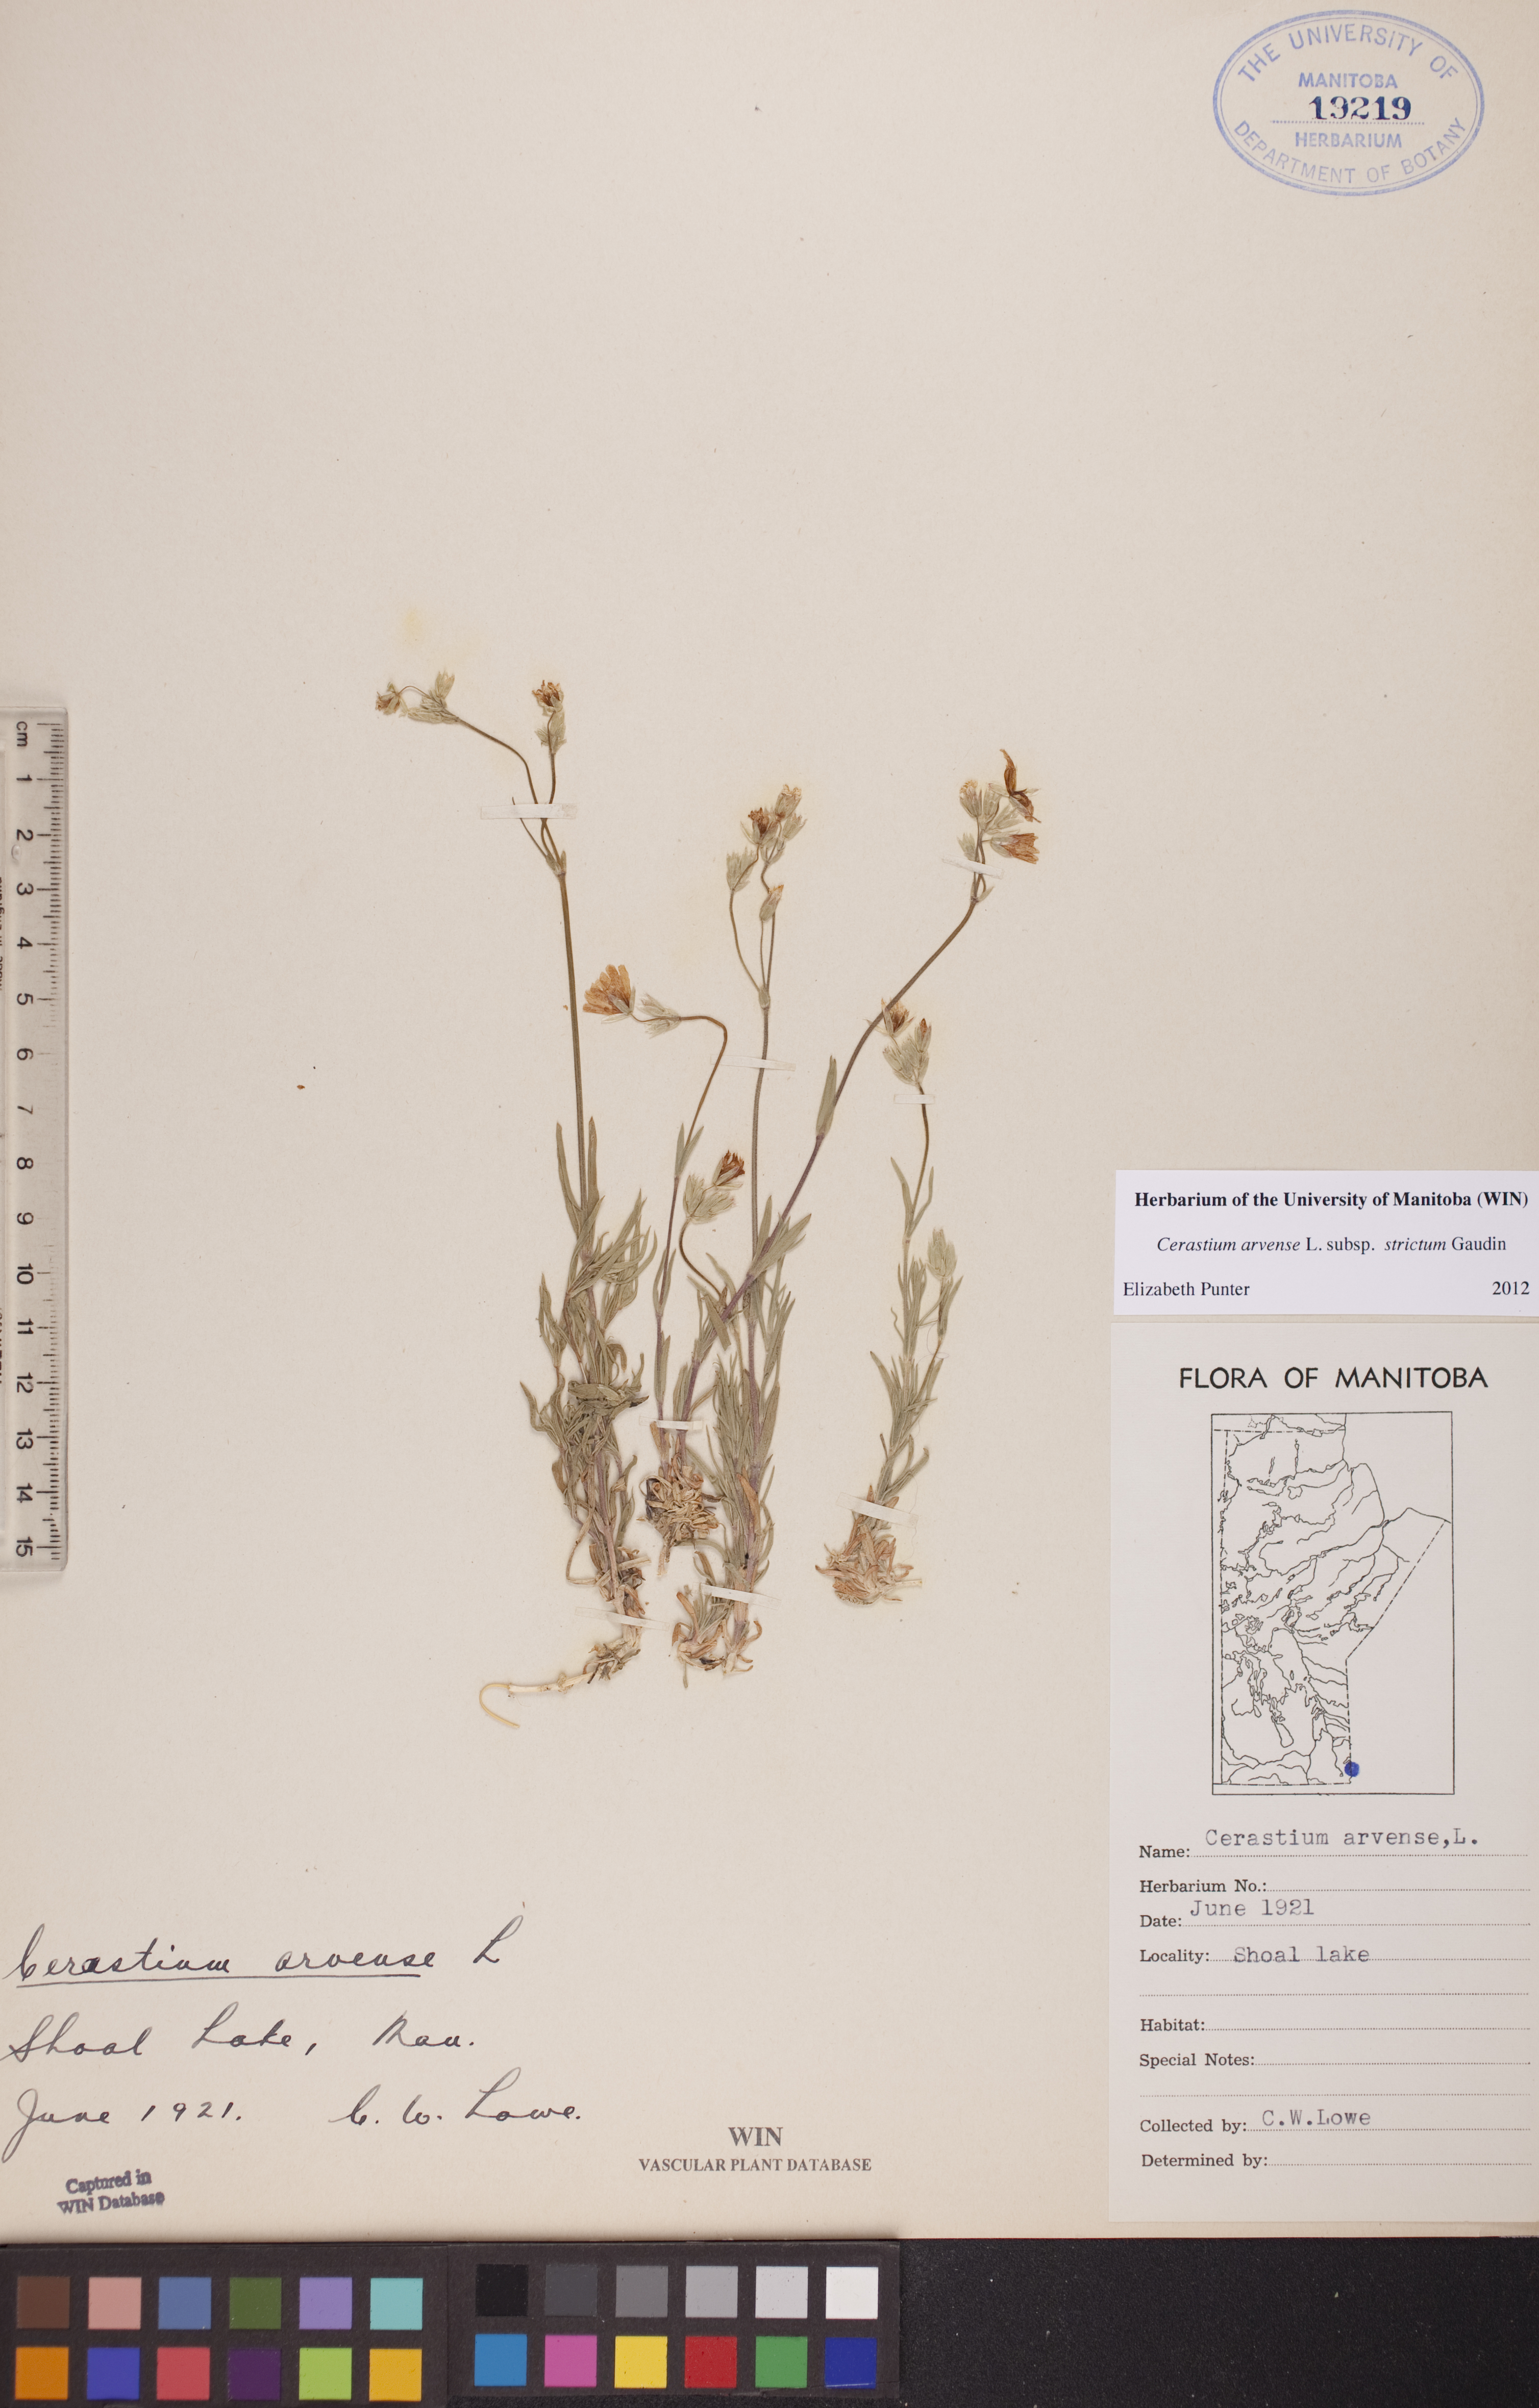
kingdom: Plantae
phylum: Tracheophyta
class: Magnoliopsida
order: Caryophyllales
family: Caryophyllaceae
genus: Cerastium
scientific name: Cerastium elongatum
